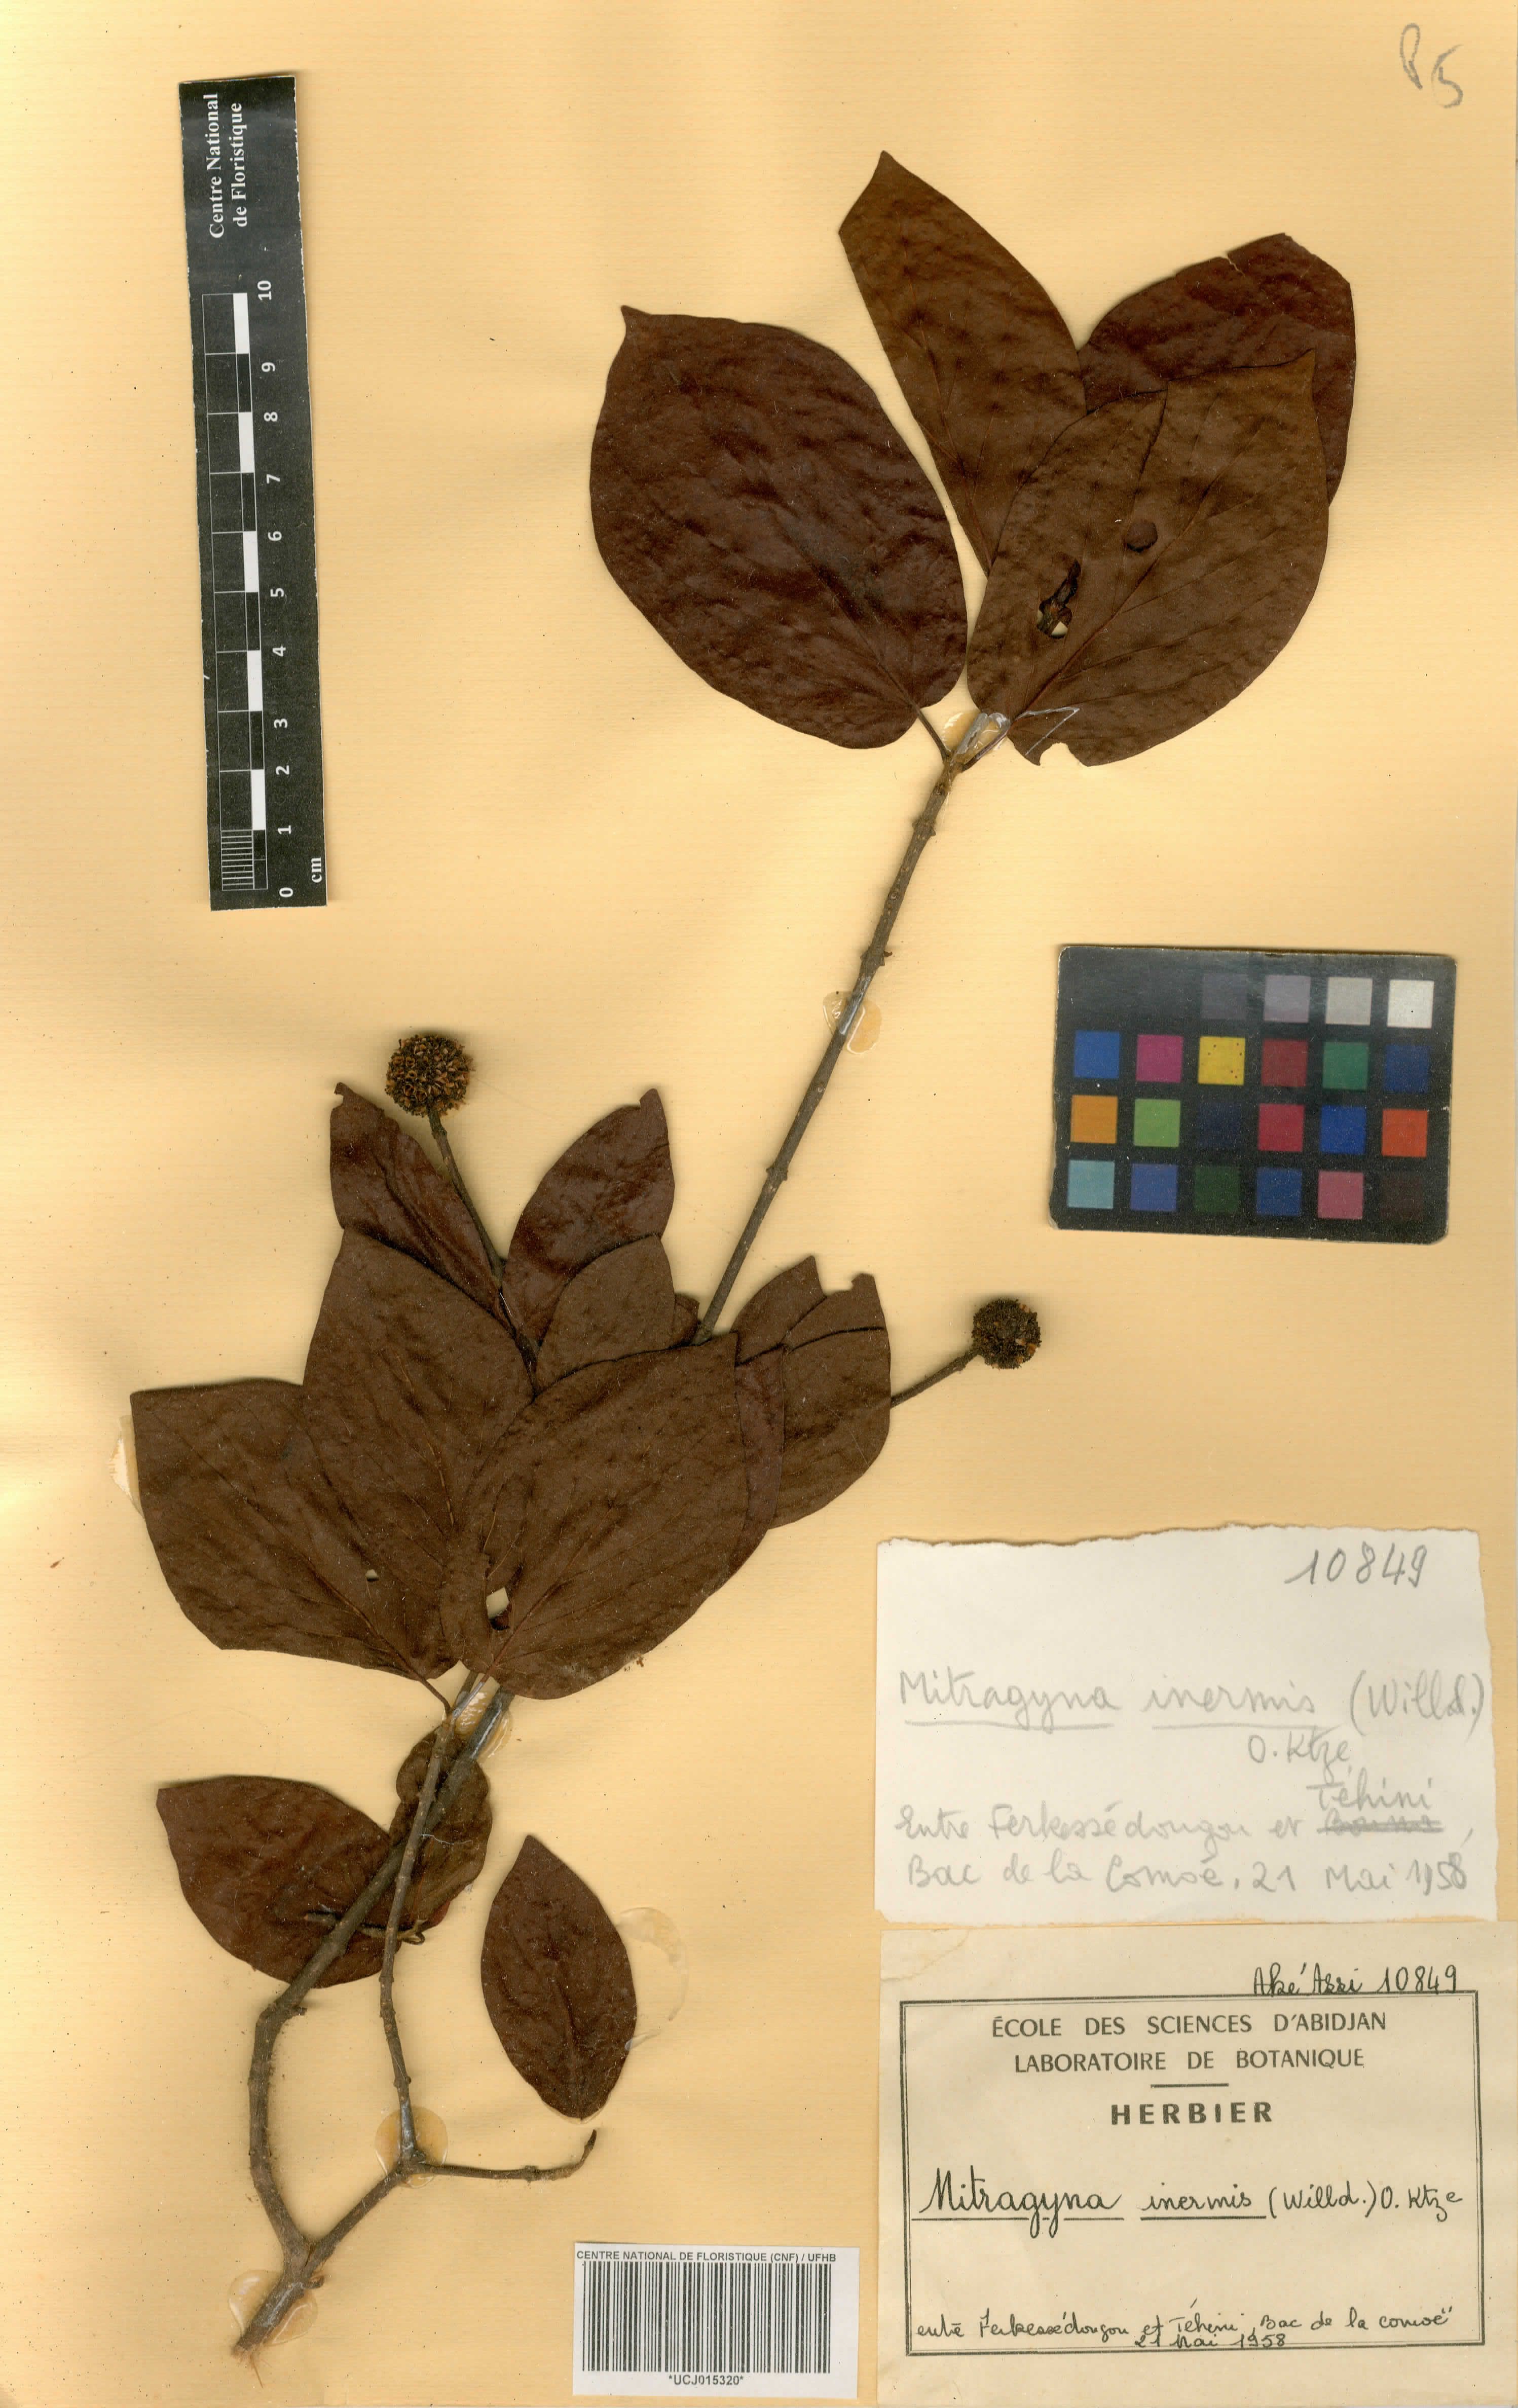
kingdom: Plantae
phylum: Tracheophyta
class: Magnoliopsida
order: Gentianales
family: Rubiaceae
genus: Mitragyna
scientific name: Mitragyna inermis
